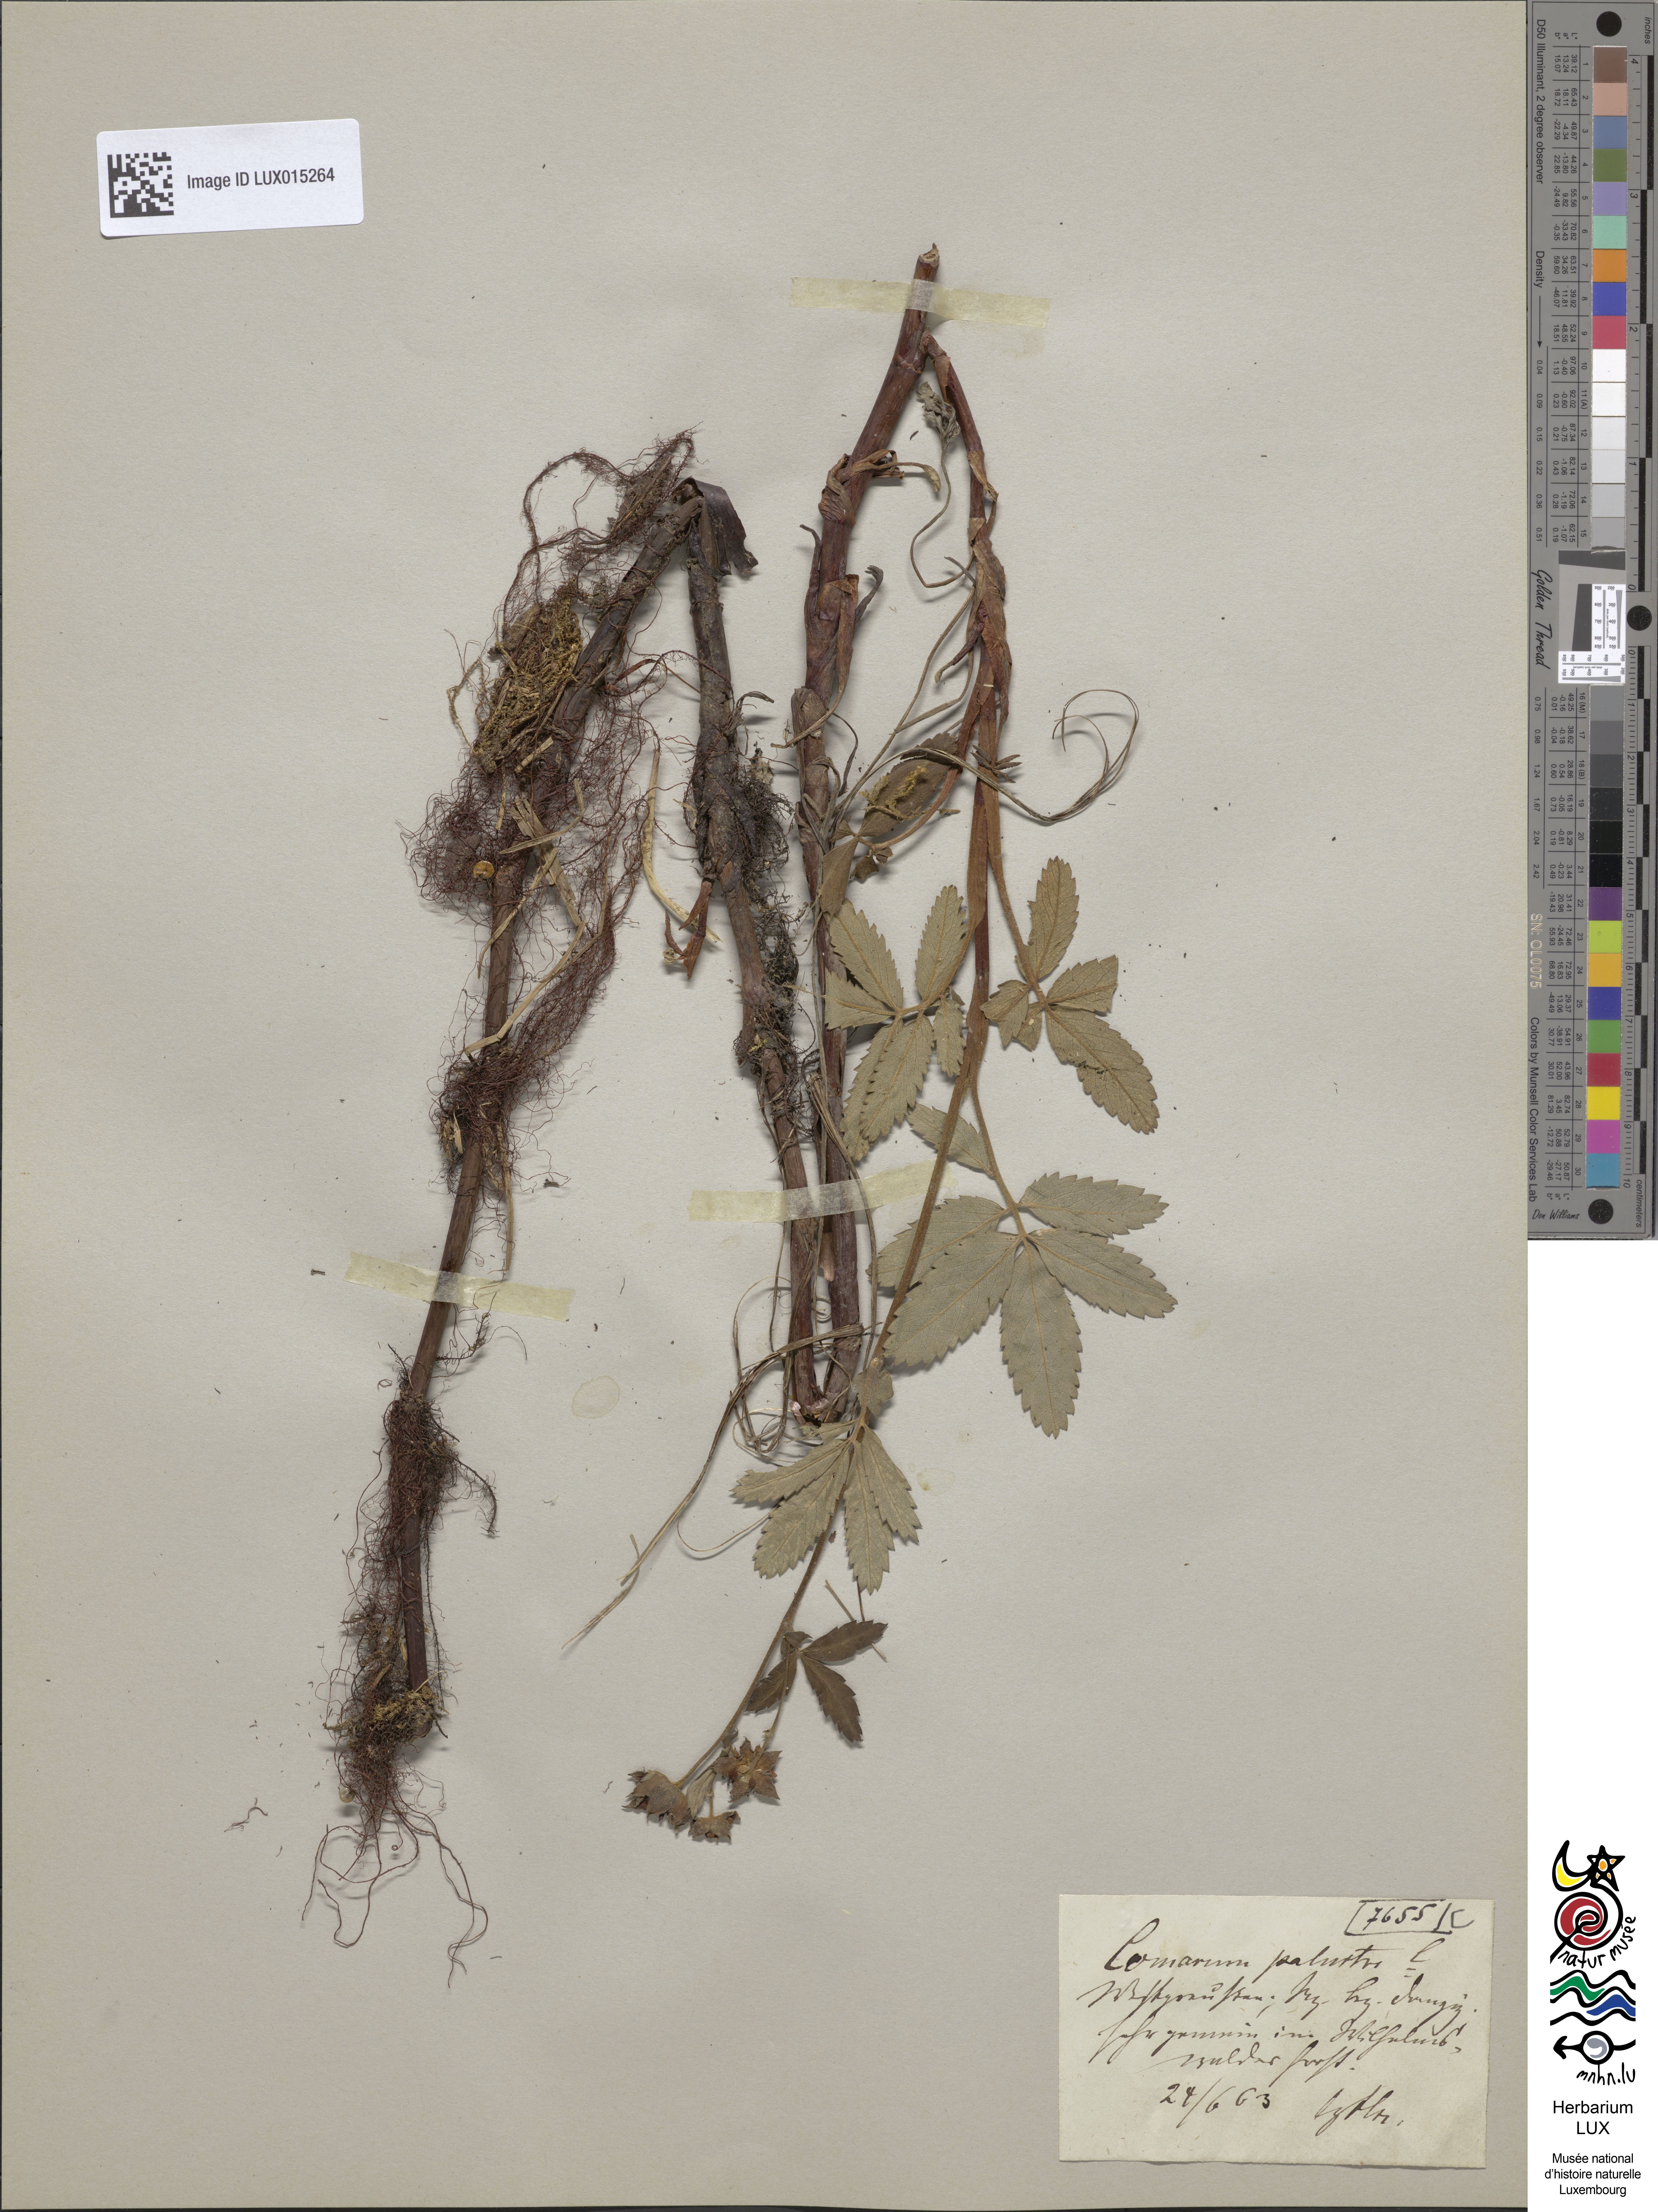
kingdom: Plantae
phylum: Tracheophyta
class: Magnoliopsida
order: Rosales
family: Rosaceae
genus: Comarum
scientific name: Comarum palustre
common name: Marsh cinquefoil
